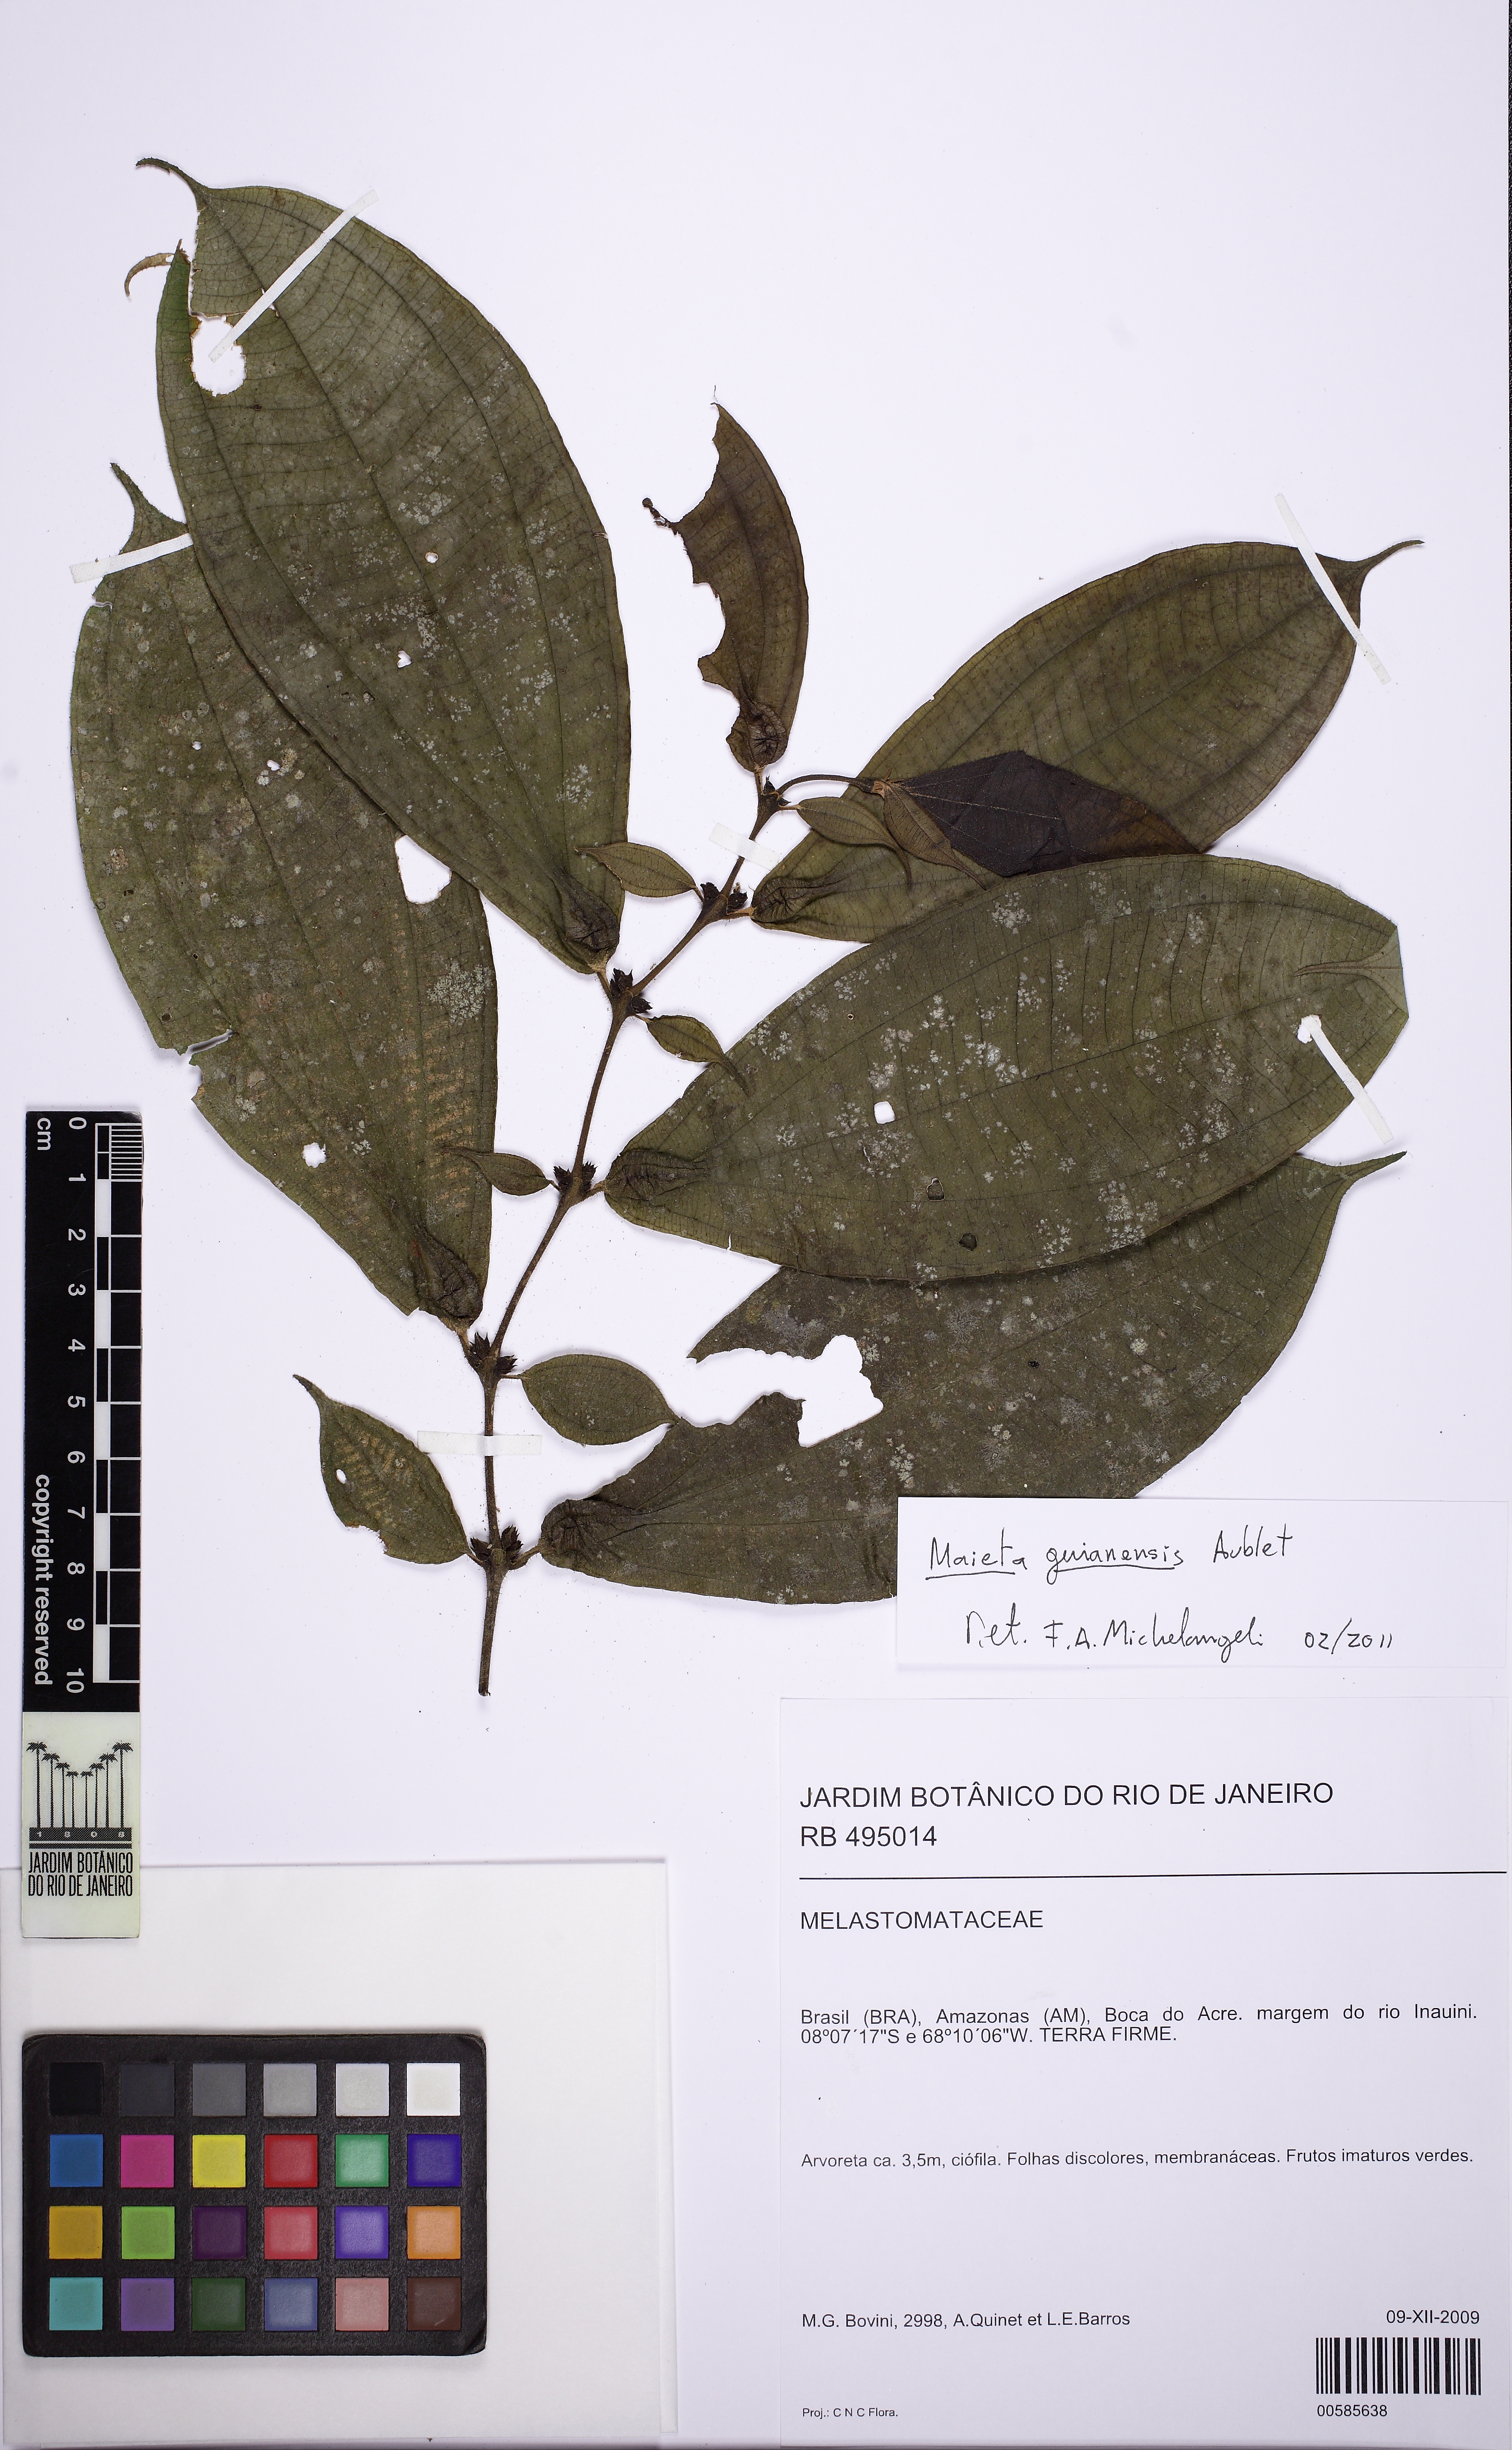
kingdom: Plantae
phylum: Tracheophyta
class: Magnoliopsida
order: Myrtales
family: Melastomataceae
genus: Miconia
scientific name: Miconia mayeta
